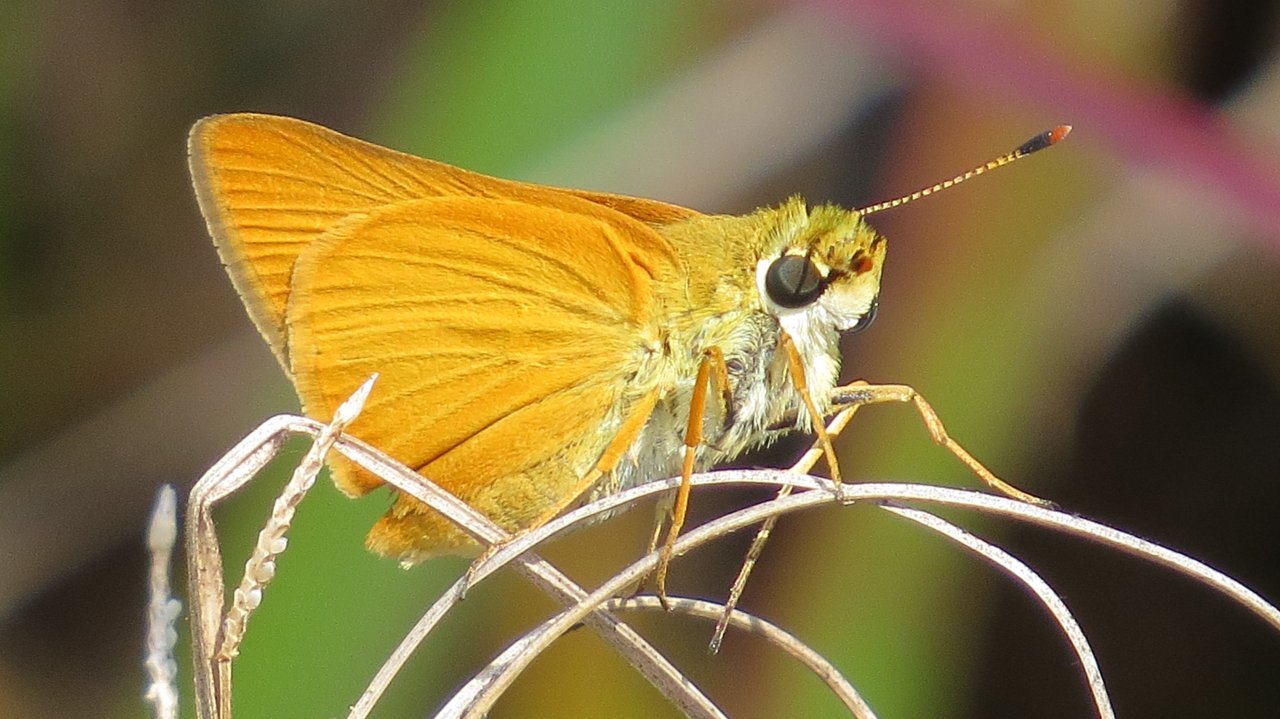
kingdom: Animalia
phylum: Arthropoda
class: Insecta
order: Lepidoptera
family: Hesperiidae
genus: Atrytone
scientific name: Atrytone delaware
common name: Delaware Skipper
